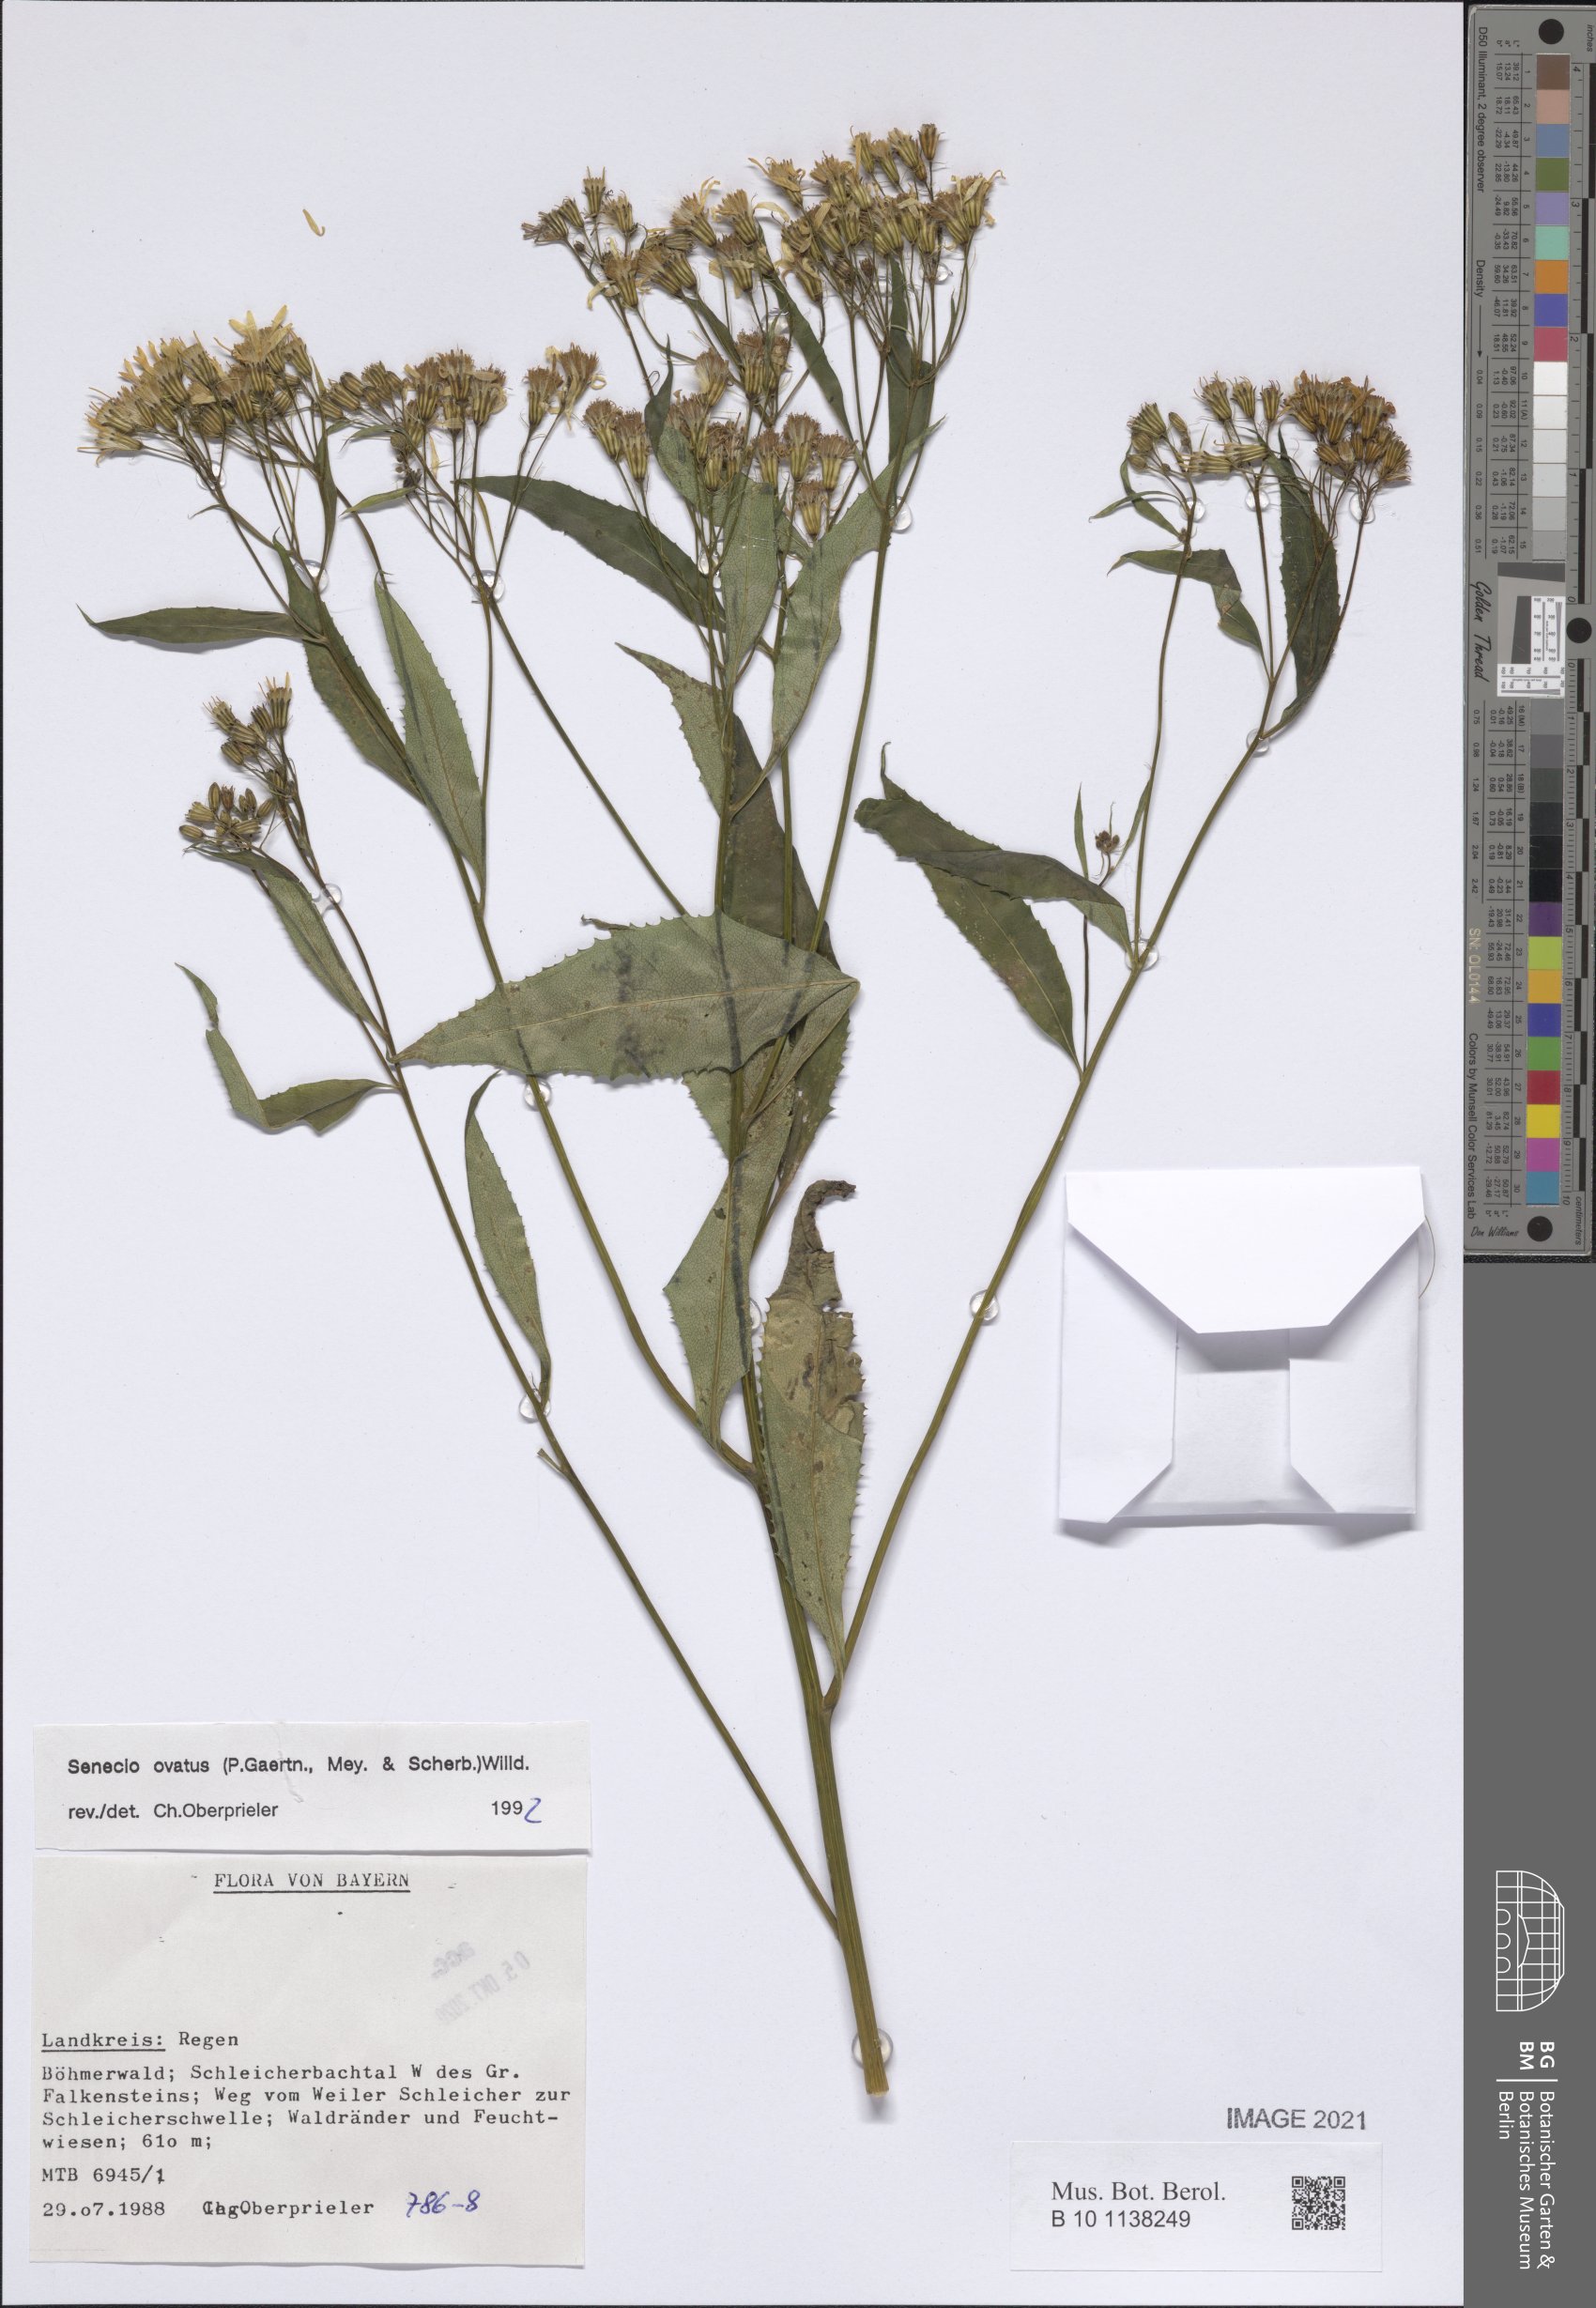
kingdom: Plantae
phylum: Tracheophyta
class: Magnoliopsida
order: Asterales
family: Asteraceae
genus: Senecio
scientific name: Senecio ovatus
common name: Wood ragwort
